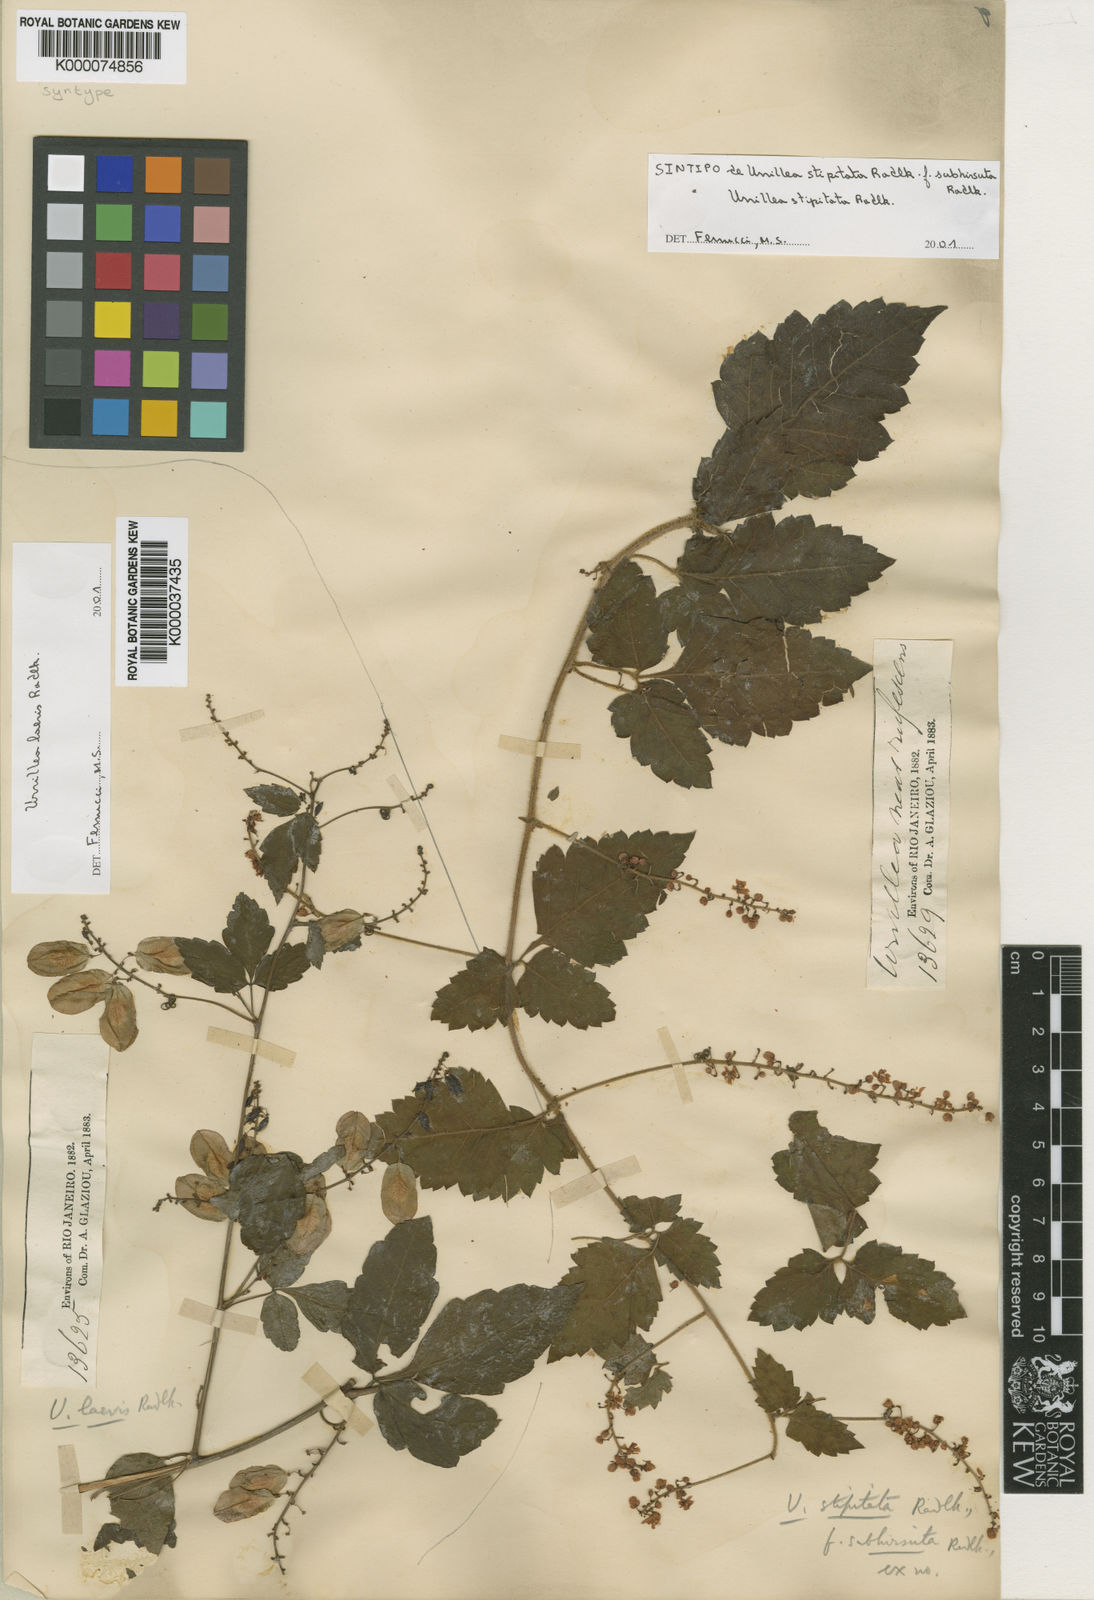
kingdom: Plantae
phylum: Tracheophyta
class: Magnoliopsida
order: Sapindales
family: Sapindaceae
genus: Urvillea
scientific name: Urvillea stipitata
